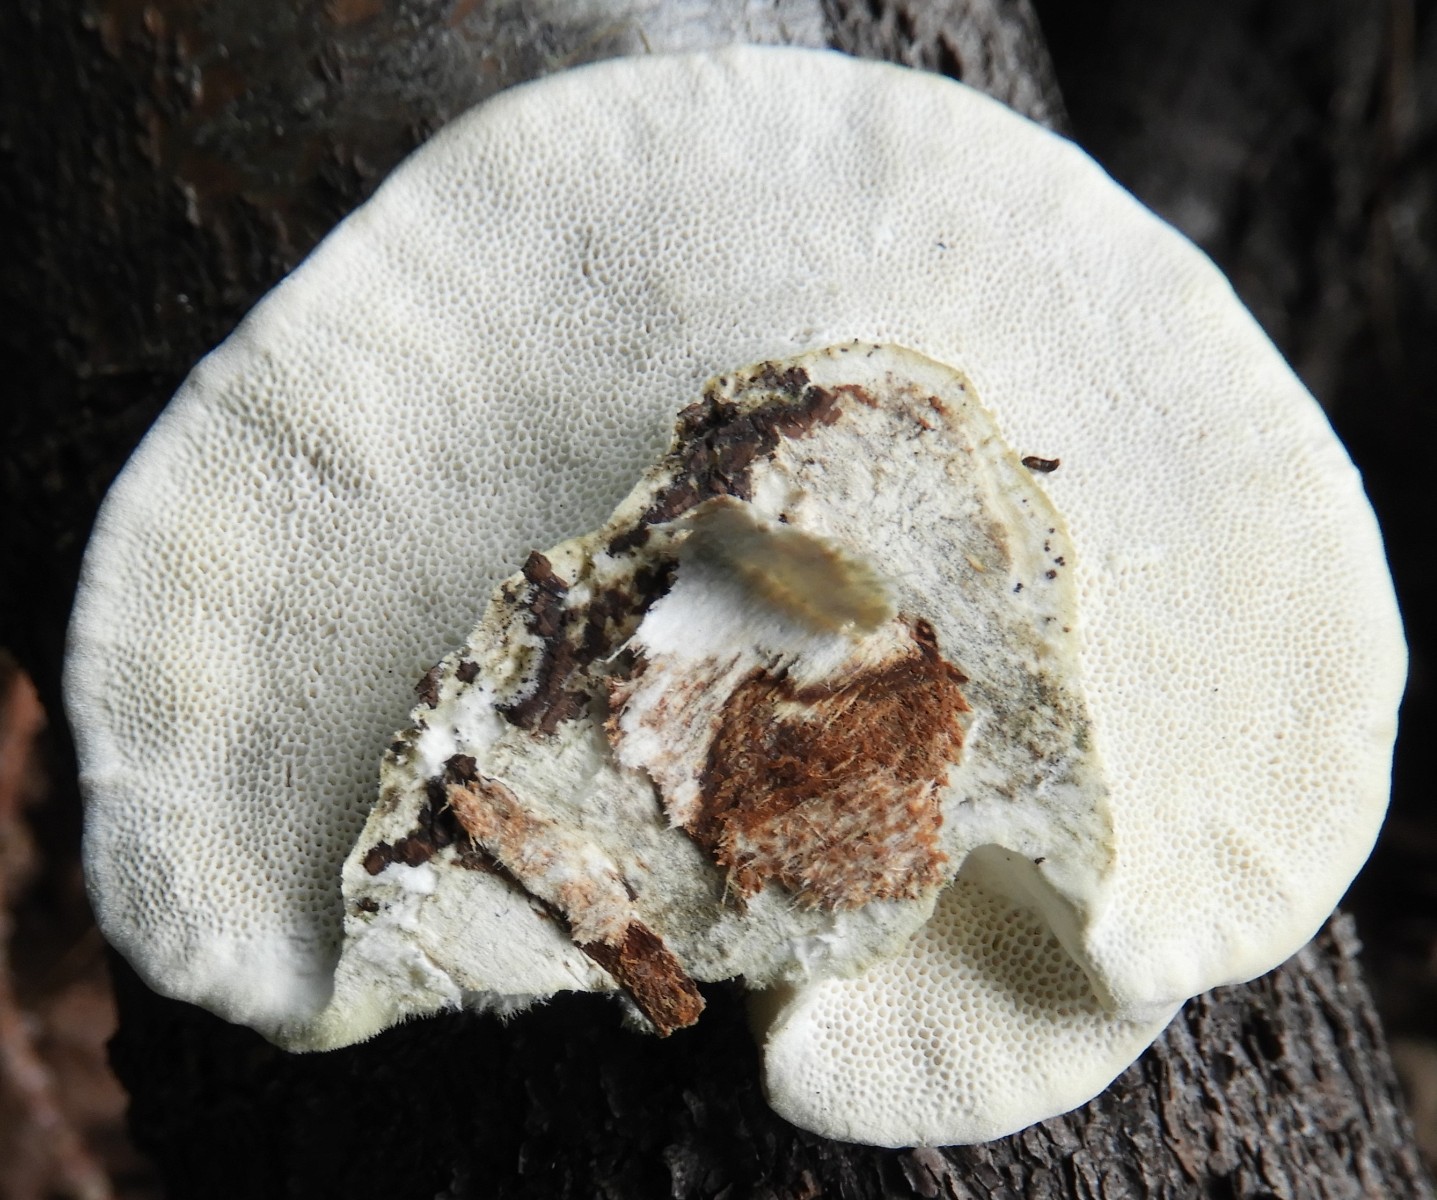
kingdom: Fungi
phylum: Basidiomycota
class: Agaricomycetes
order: Polyporales
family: Polyporaceae
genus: Trametes
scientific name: Trametes hirsuta
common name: håret læderporesvamp
